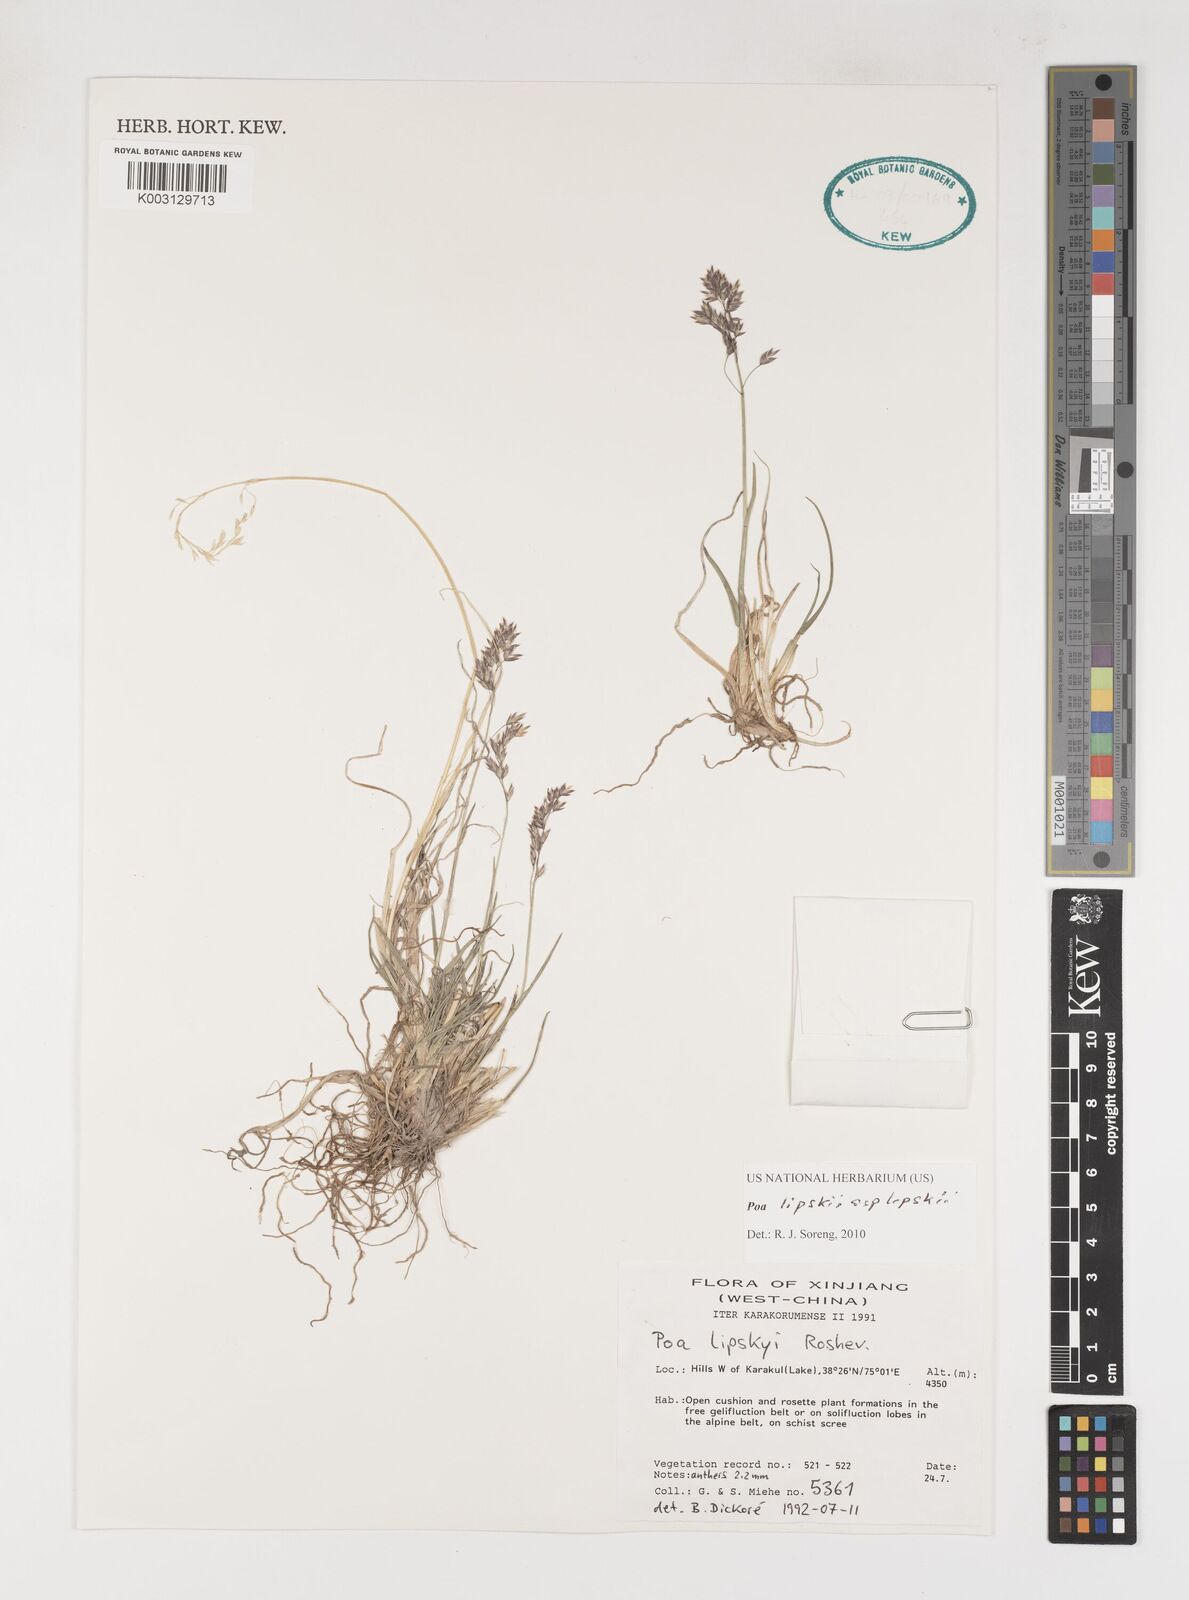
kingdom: Plantae
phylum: Tracheophyta
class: Liliopsida
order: Poales
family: Poaceae
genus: Poa
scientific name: Poa lipskyi
